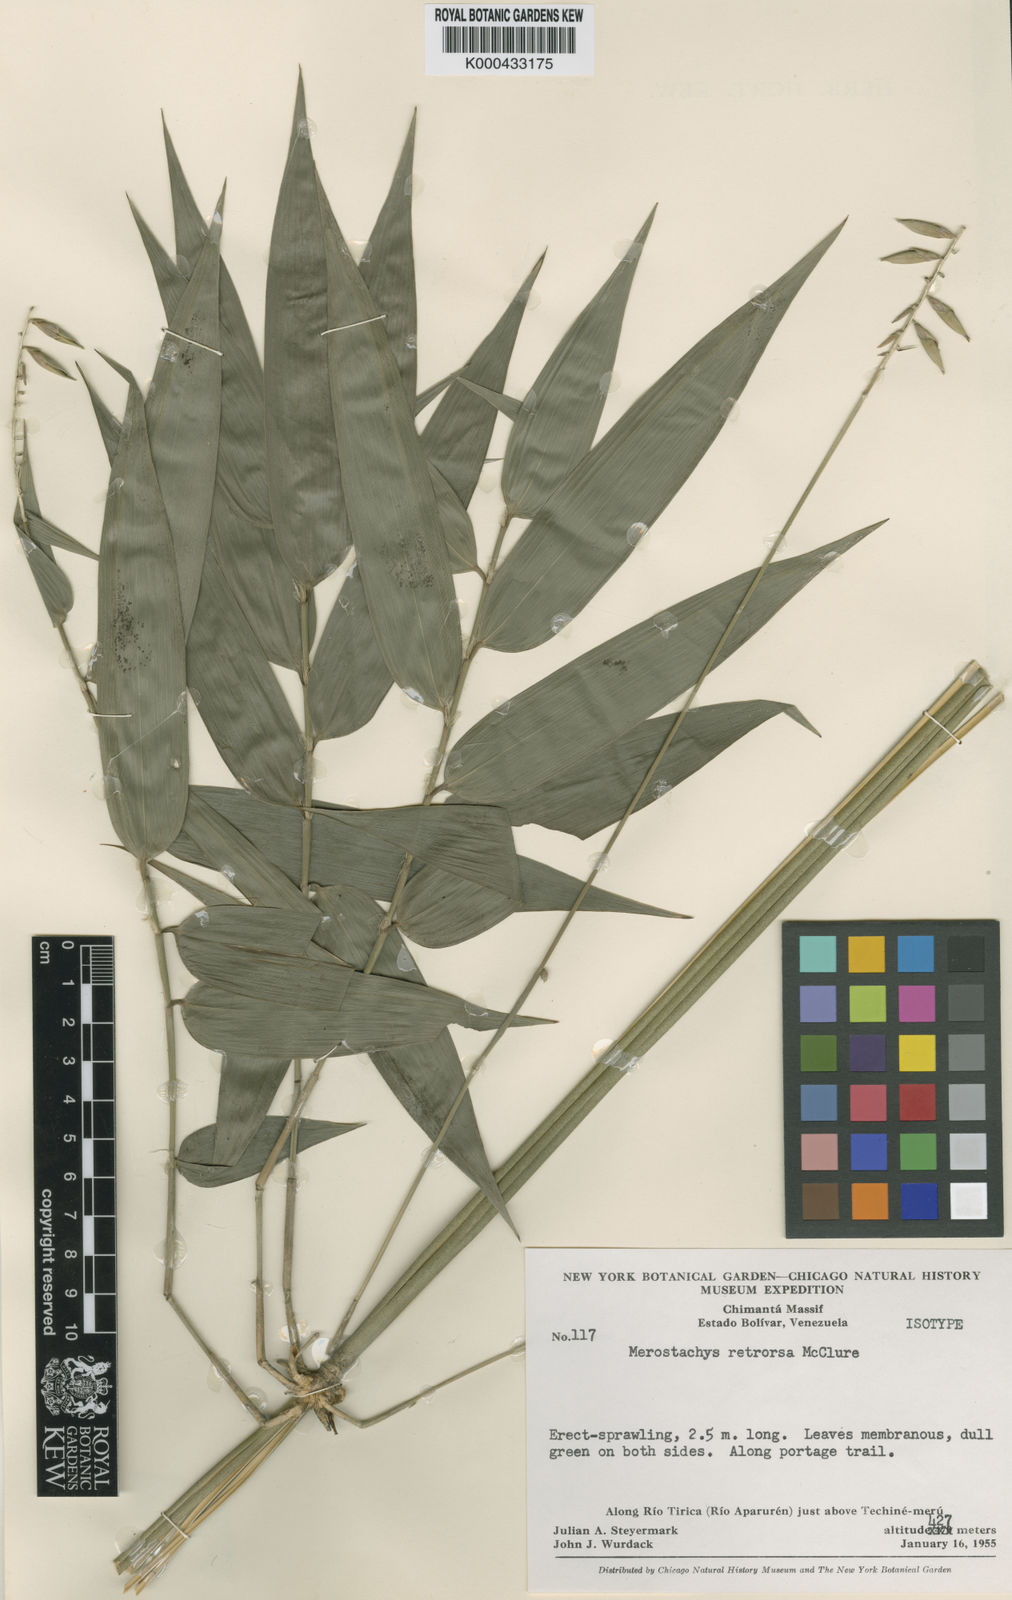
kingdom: Plantae
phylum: Tracheophyta
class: Liliopsida
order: Poales
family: Poaceae
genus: Merostachys
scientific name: Merostachys retrorsa
